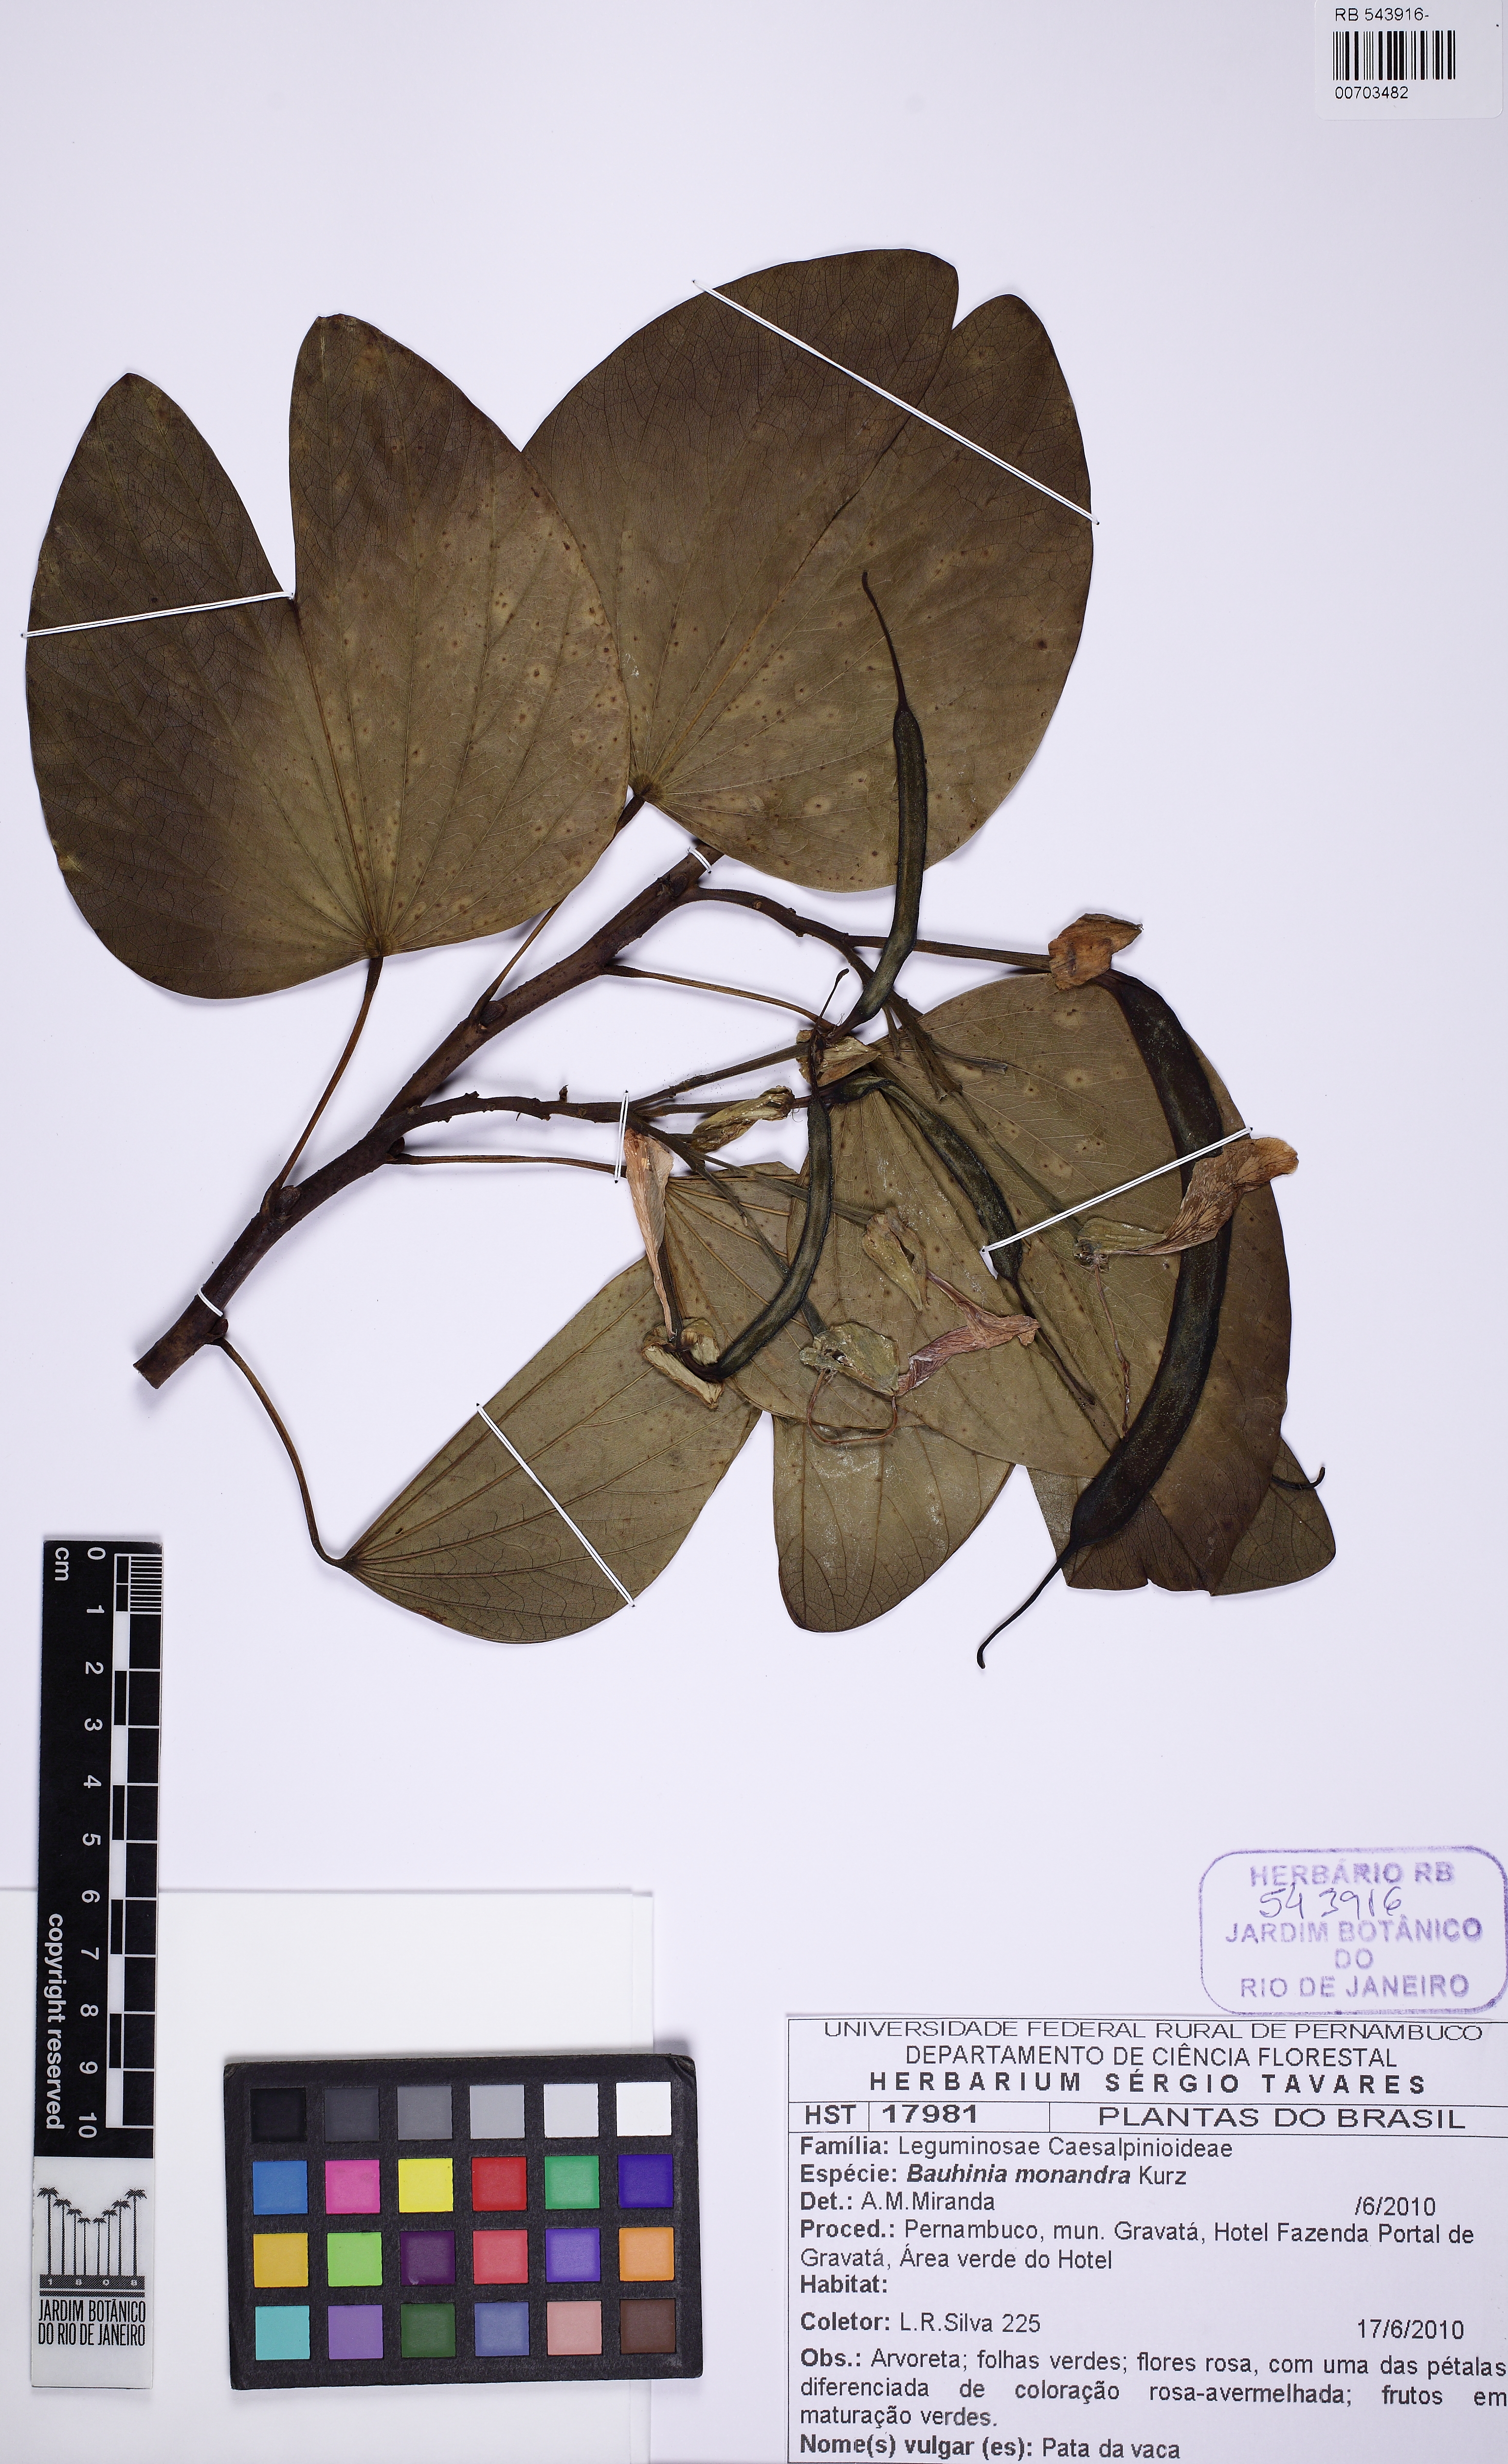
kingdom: Plantae
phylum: Tracheophyta
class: Magnoliopsida
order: Fabales
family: Fabaceae
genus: Bauhinia
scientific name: Bauhinia monandra
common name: Napoleon's plume
